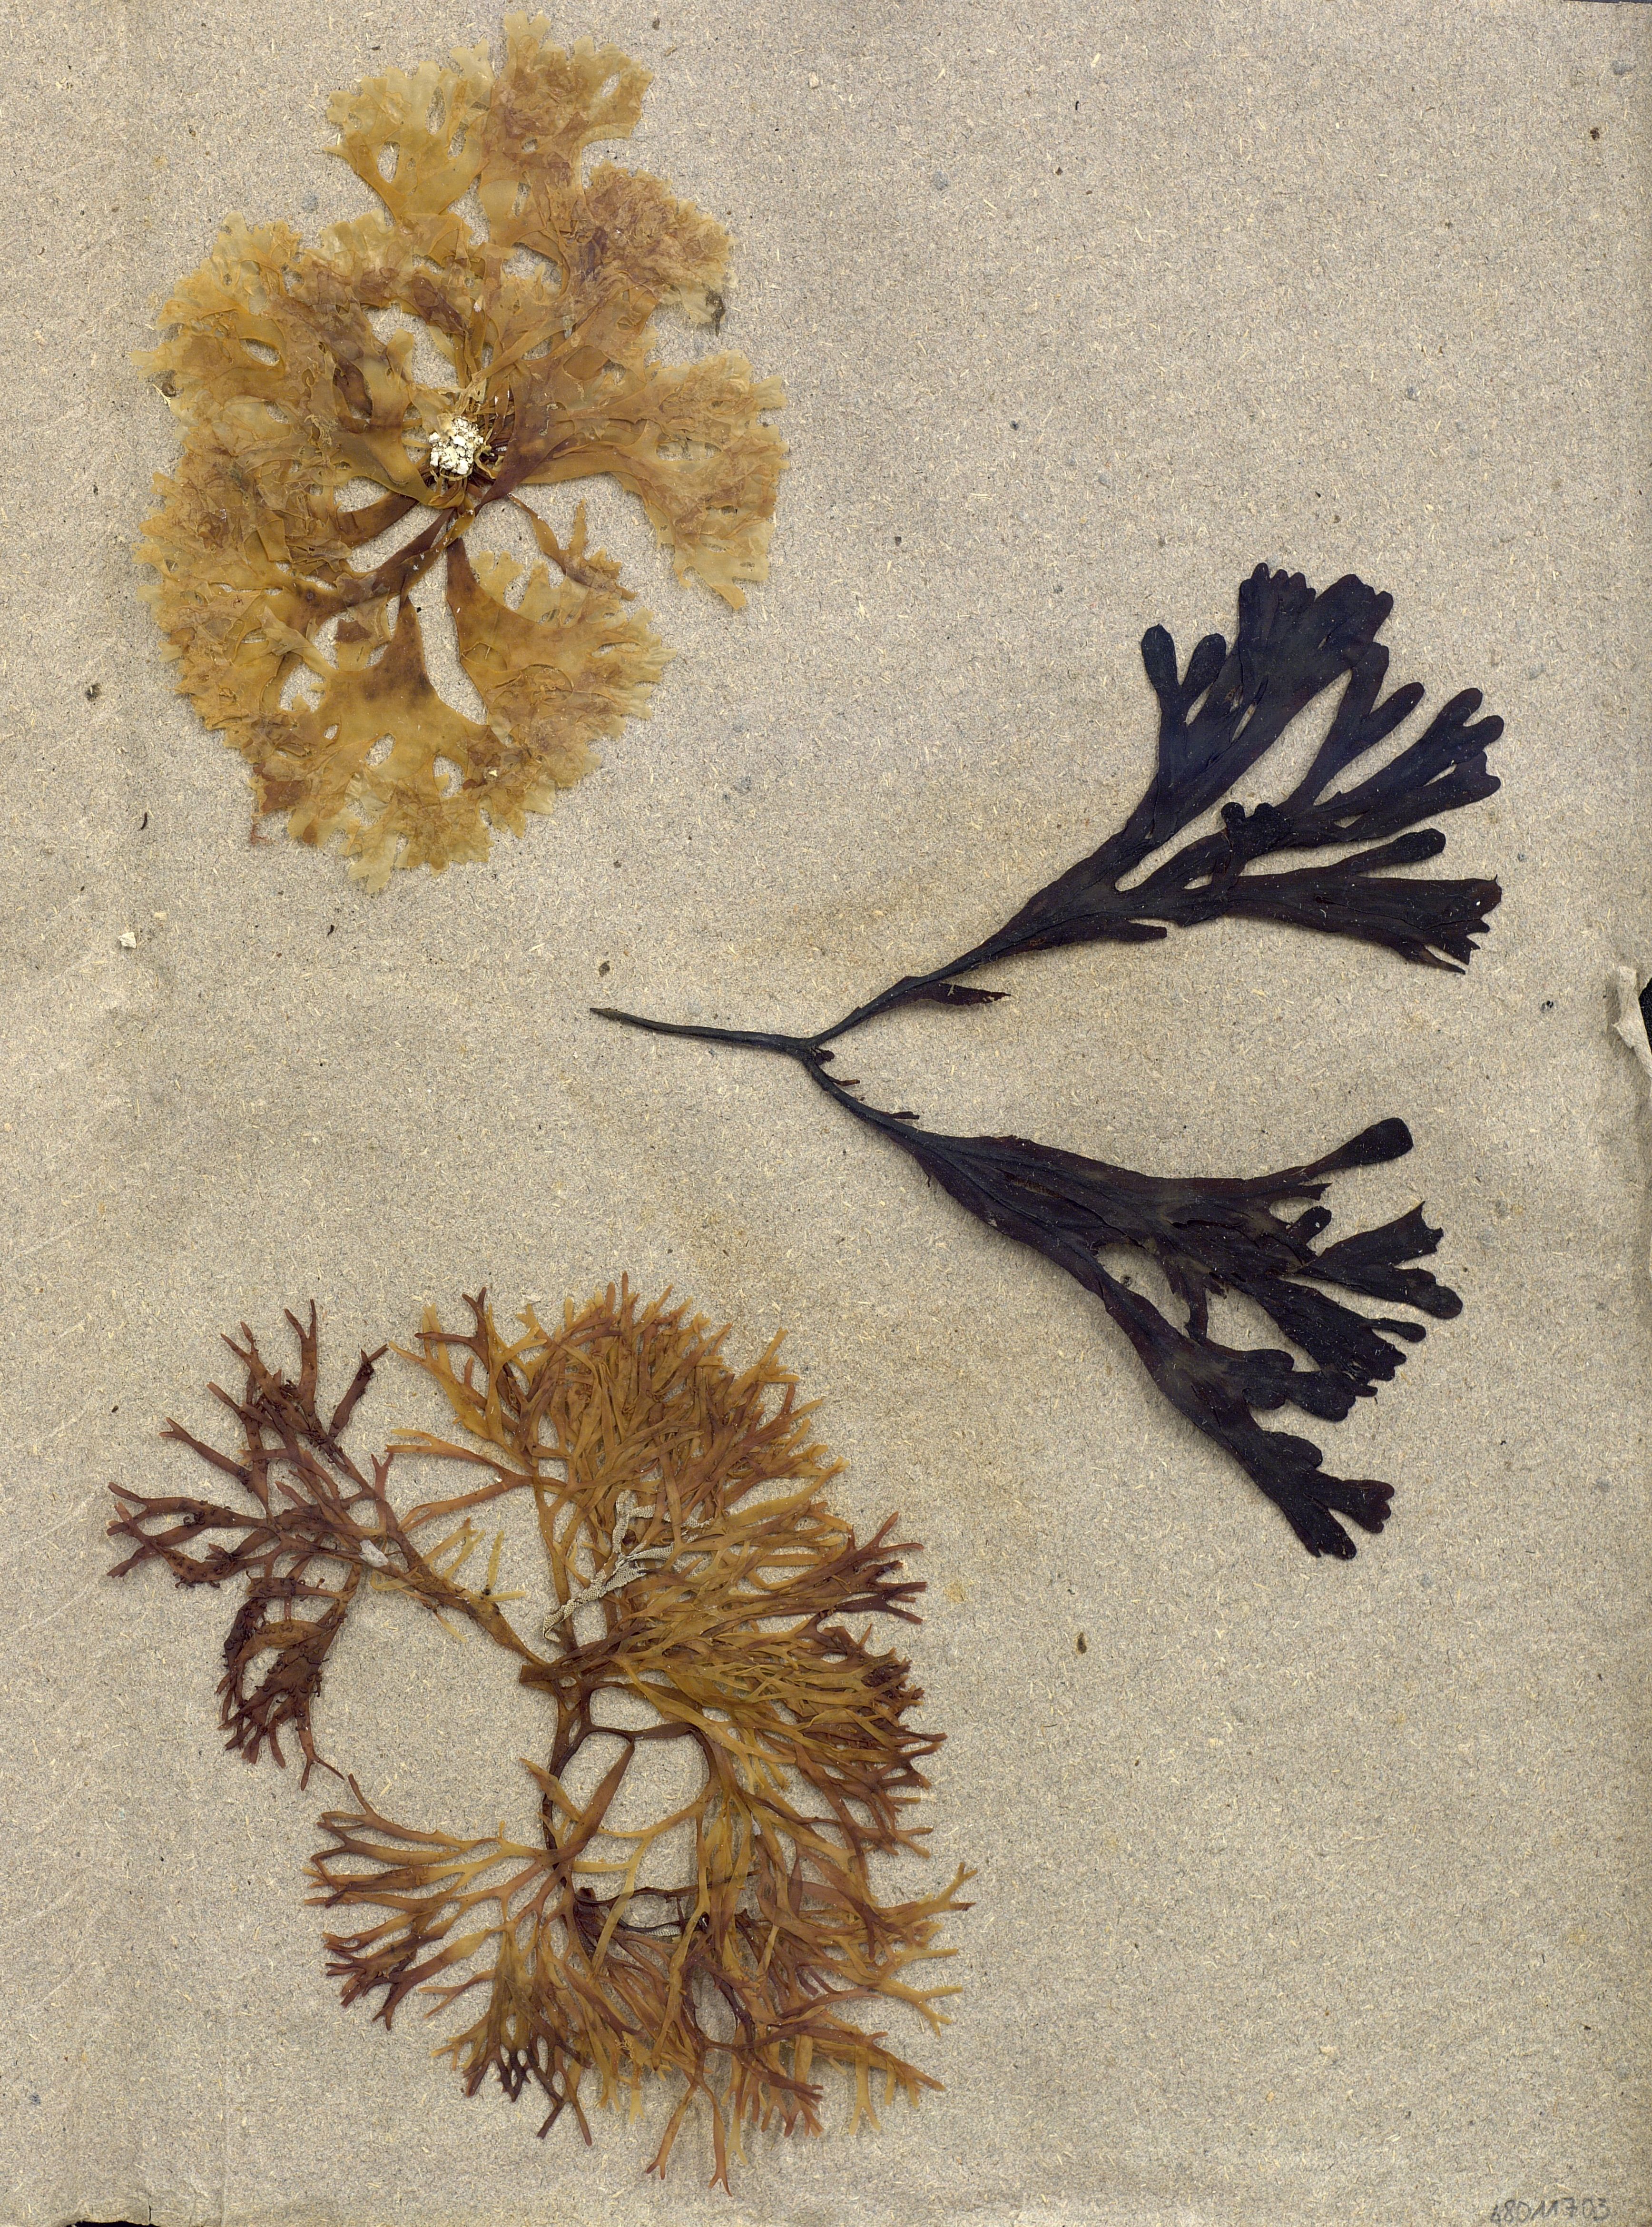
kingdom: Chromista
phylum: Ochrophyta
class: Phaeophyceae
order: Fucales
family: Fucaceae
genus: Fucus
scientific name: Fucus spiralis
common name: Spiral wrack
